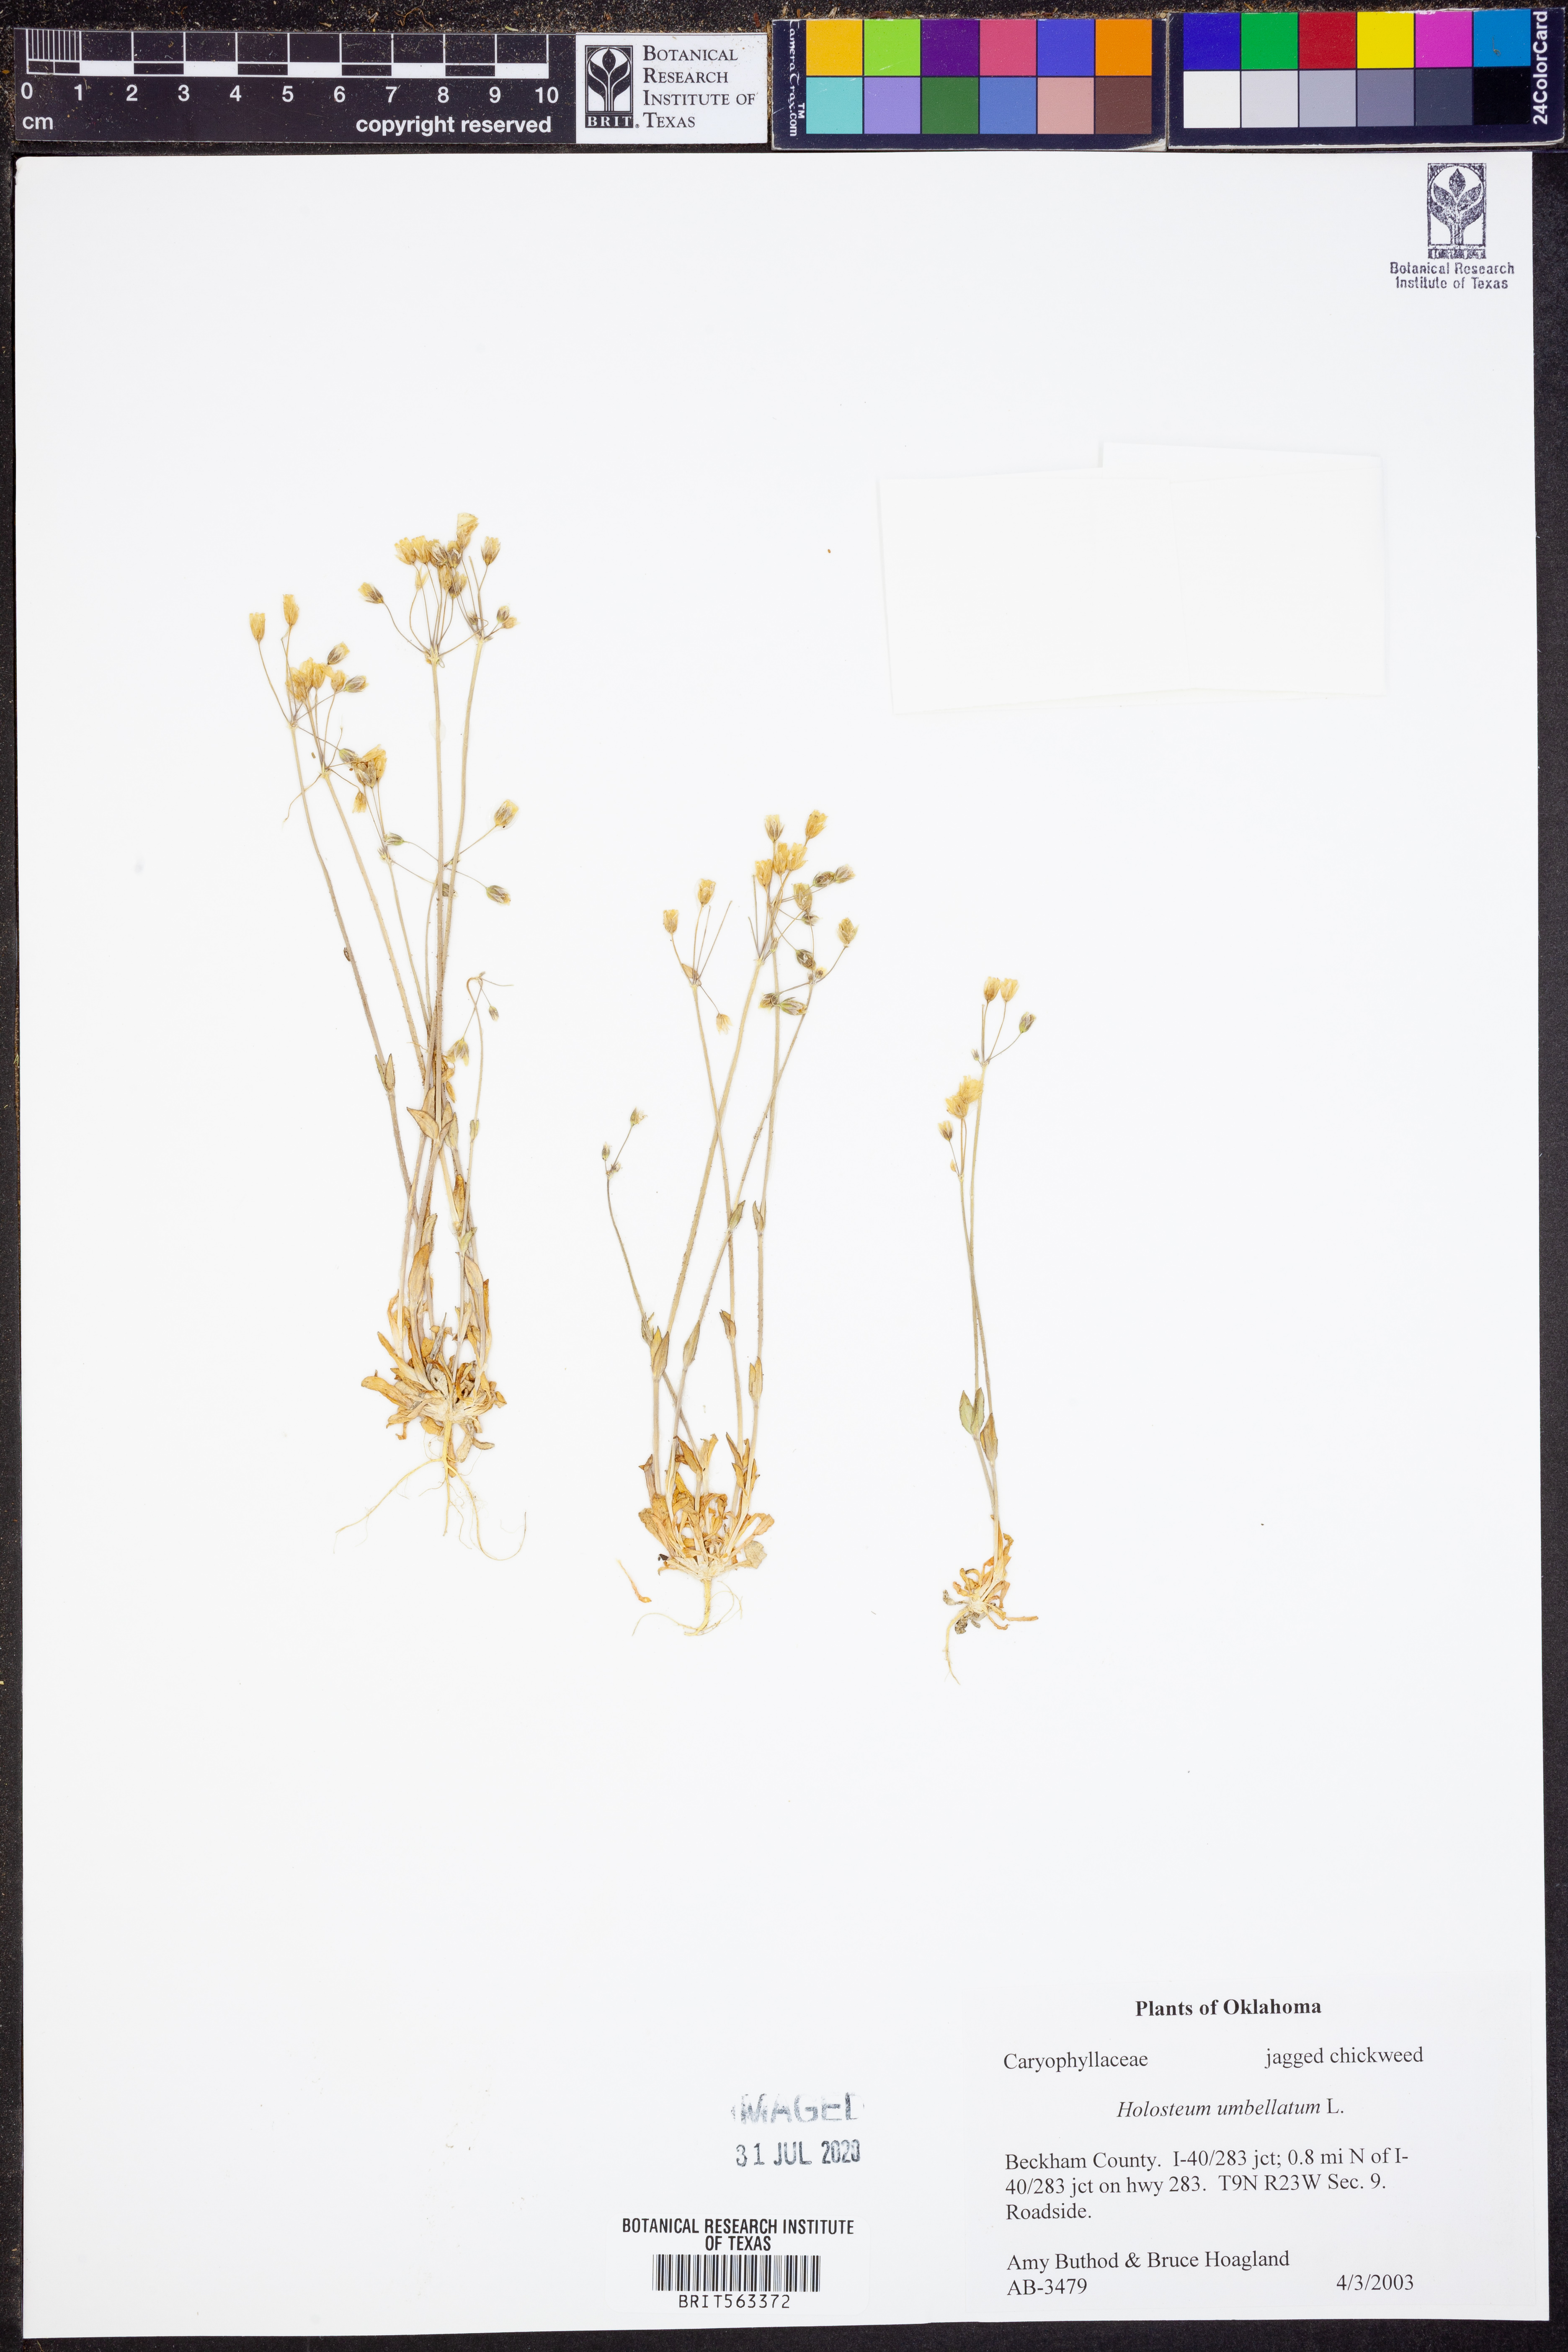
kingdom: Plantae
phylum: Tracheophyta
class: Magnoliopsida
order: Caryophyllales
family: Caryophyllaceae
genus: Holosteum
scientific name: Holosteum umbellatum
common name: Jagged chickweed
